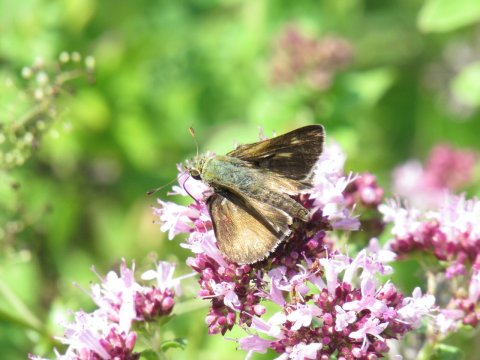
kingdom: Animalia
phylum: Arthropoda
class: Insecta
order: Lepidoptera
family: Hesperiidae
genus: Polites
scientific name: Polites egeremet
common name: Northern Broken-Dash
